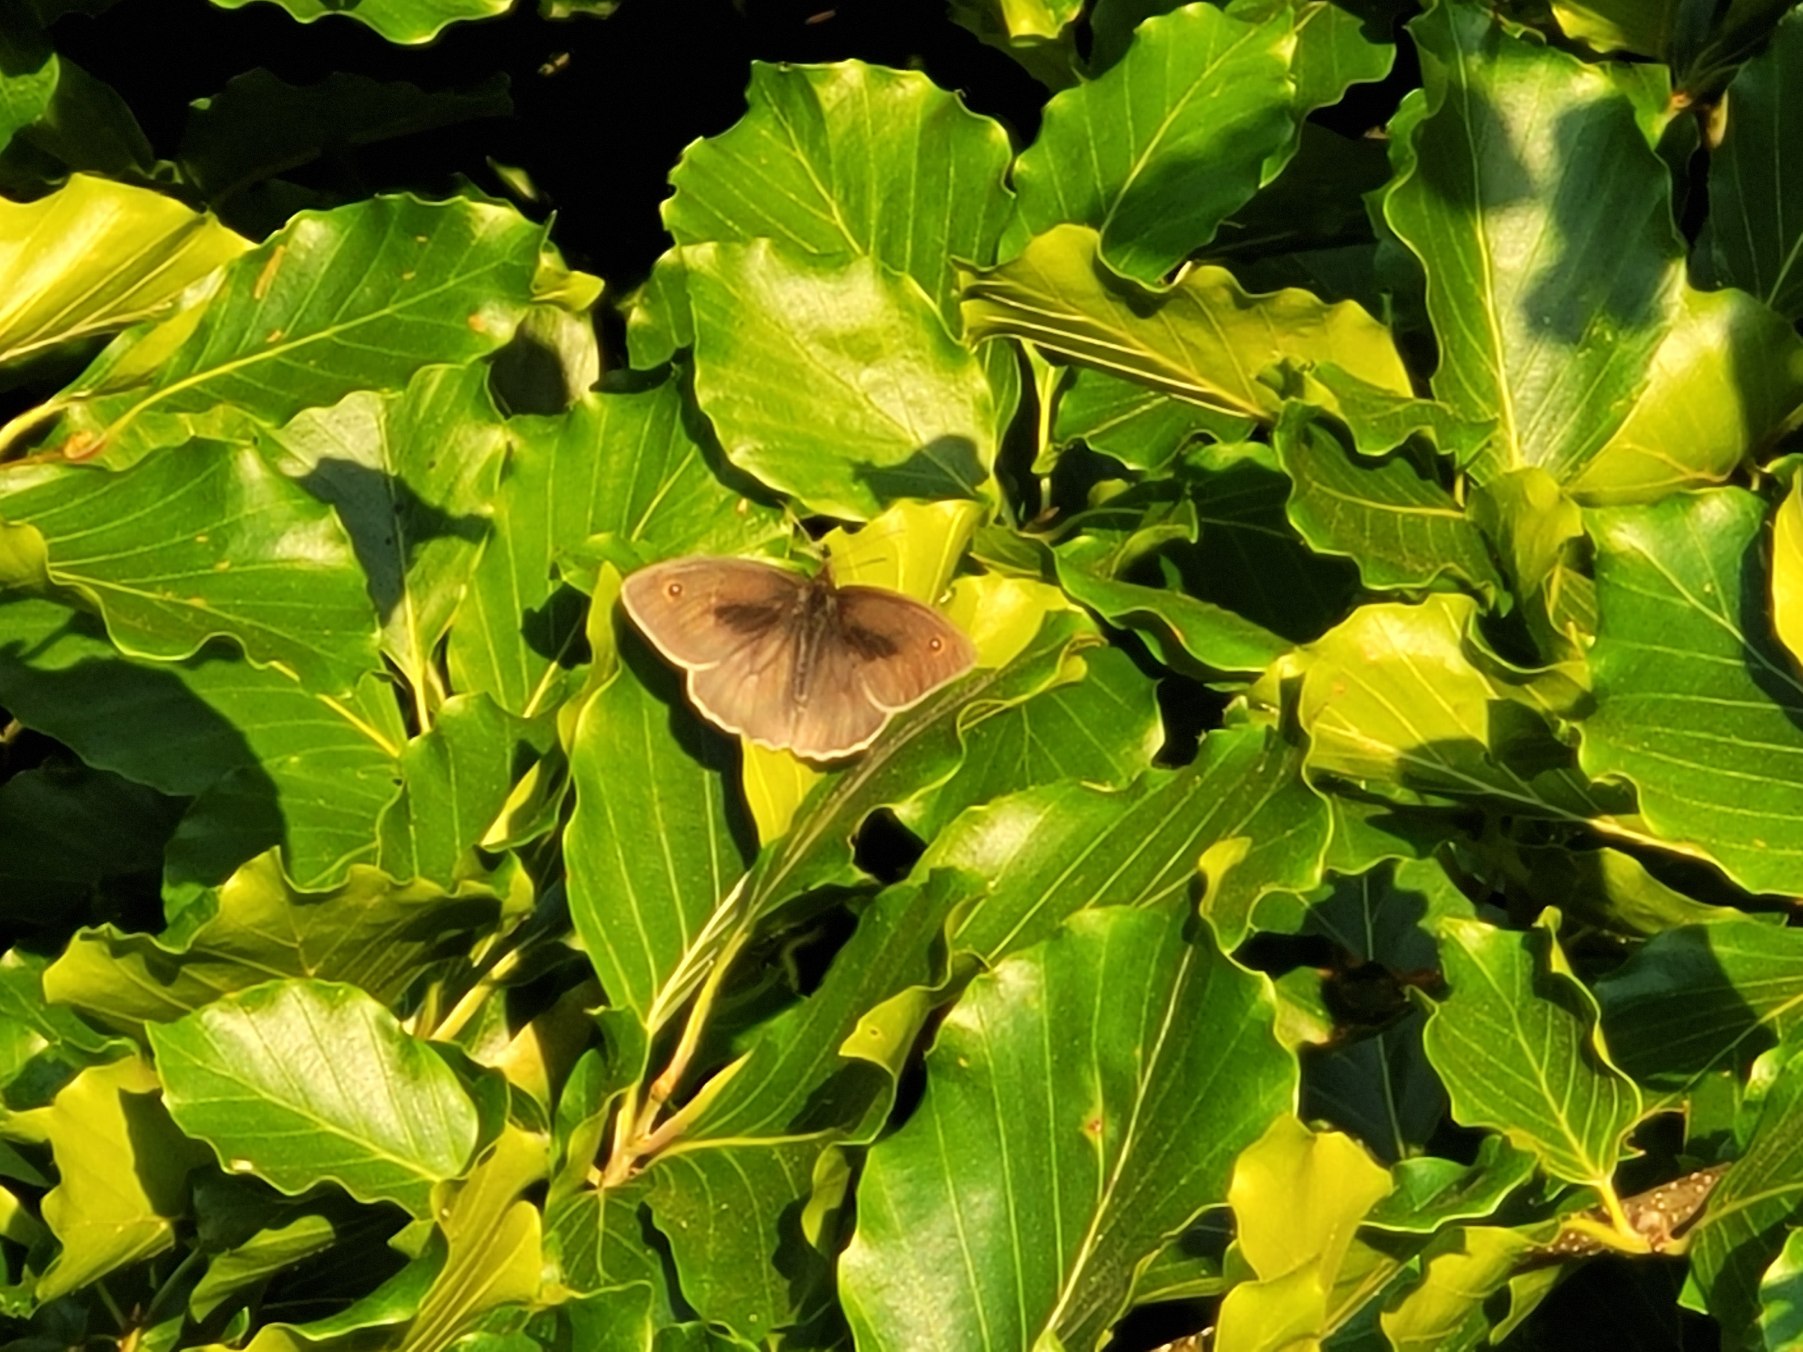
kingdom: Animalia
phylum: Arthropoda
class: Insecta
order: Lepidoptera
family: Nymphalidae
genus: Maniola
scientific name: Maniola jurtina
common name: Græsrandøje
